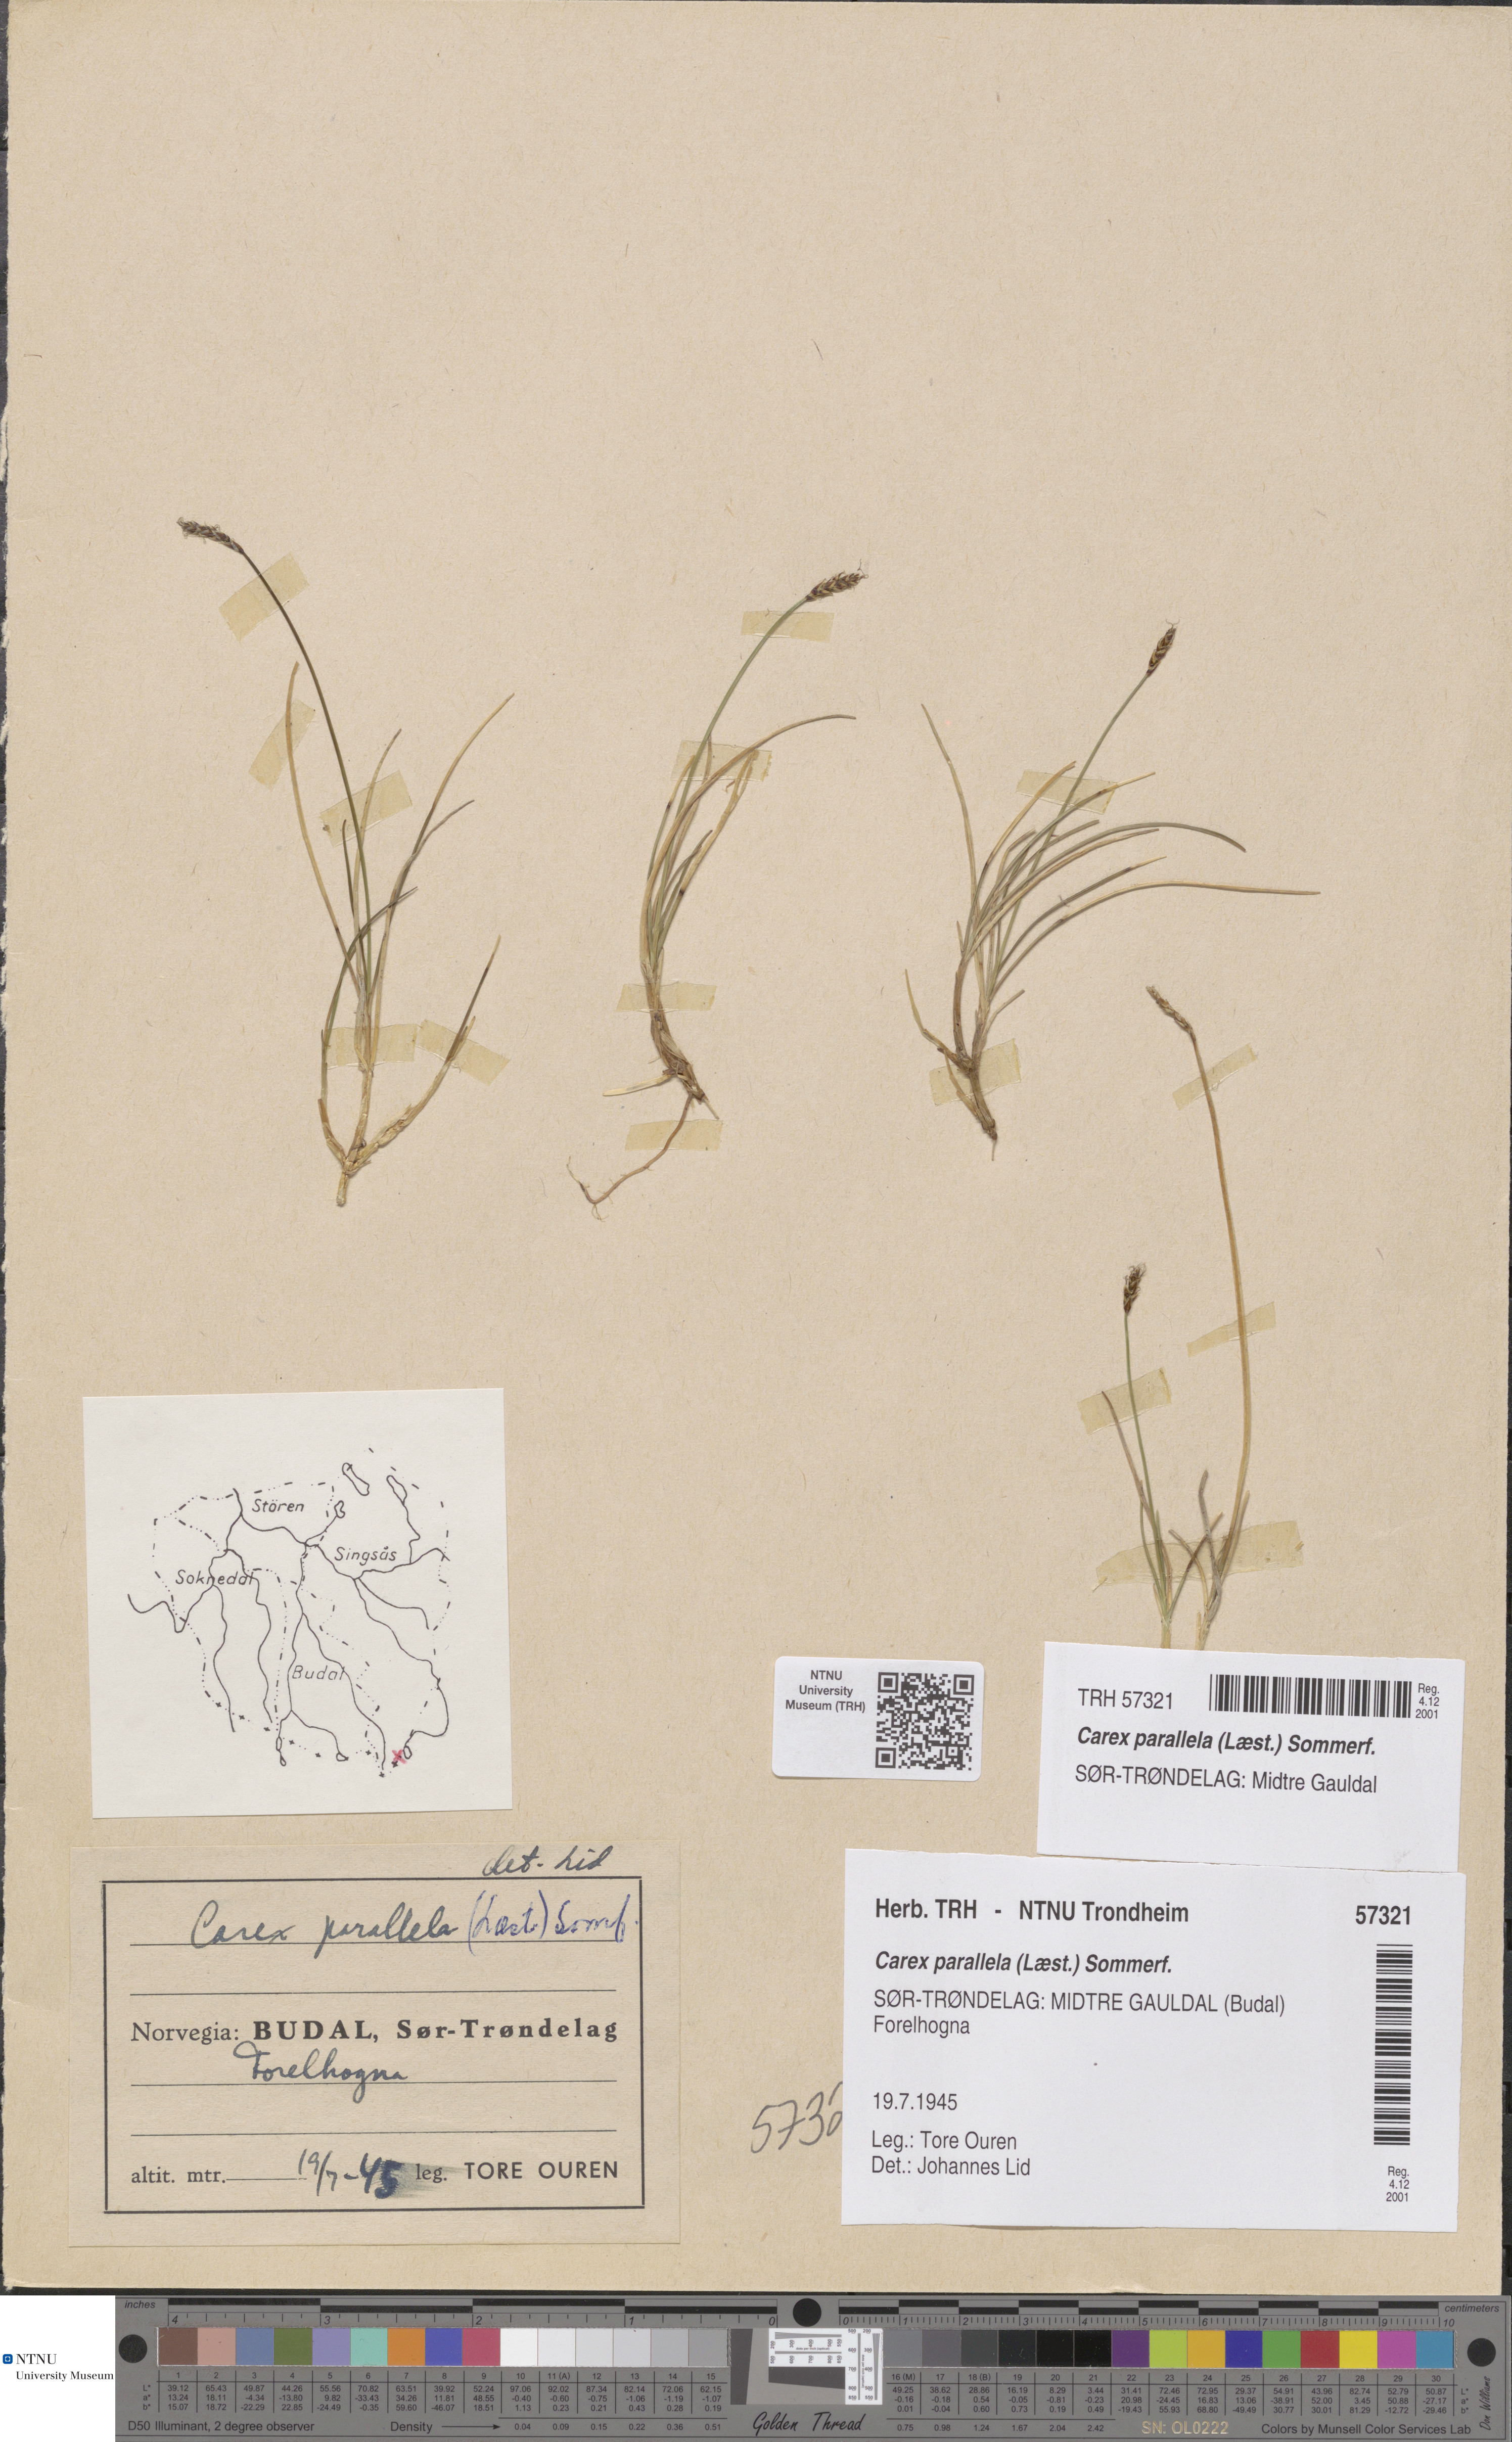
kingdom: Plantae
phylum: Tracheophyta
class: Liliopsida
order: Poales
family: Cyperaceae
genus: Carex
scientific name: Carex parallela
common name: Parallel sedge
